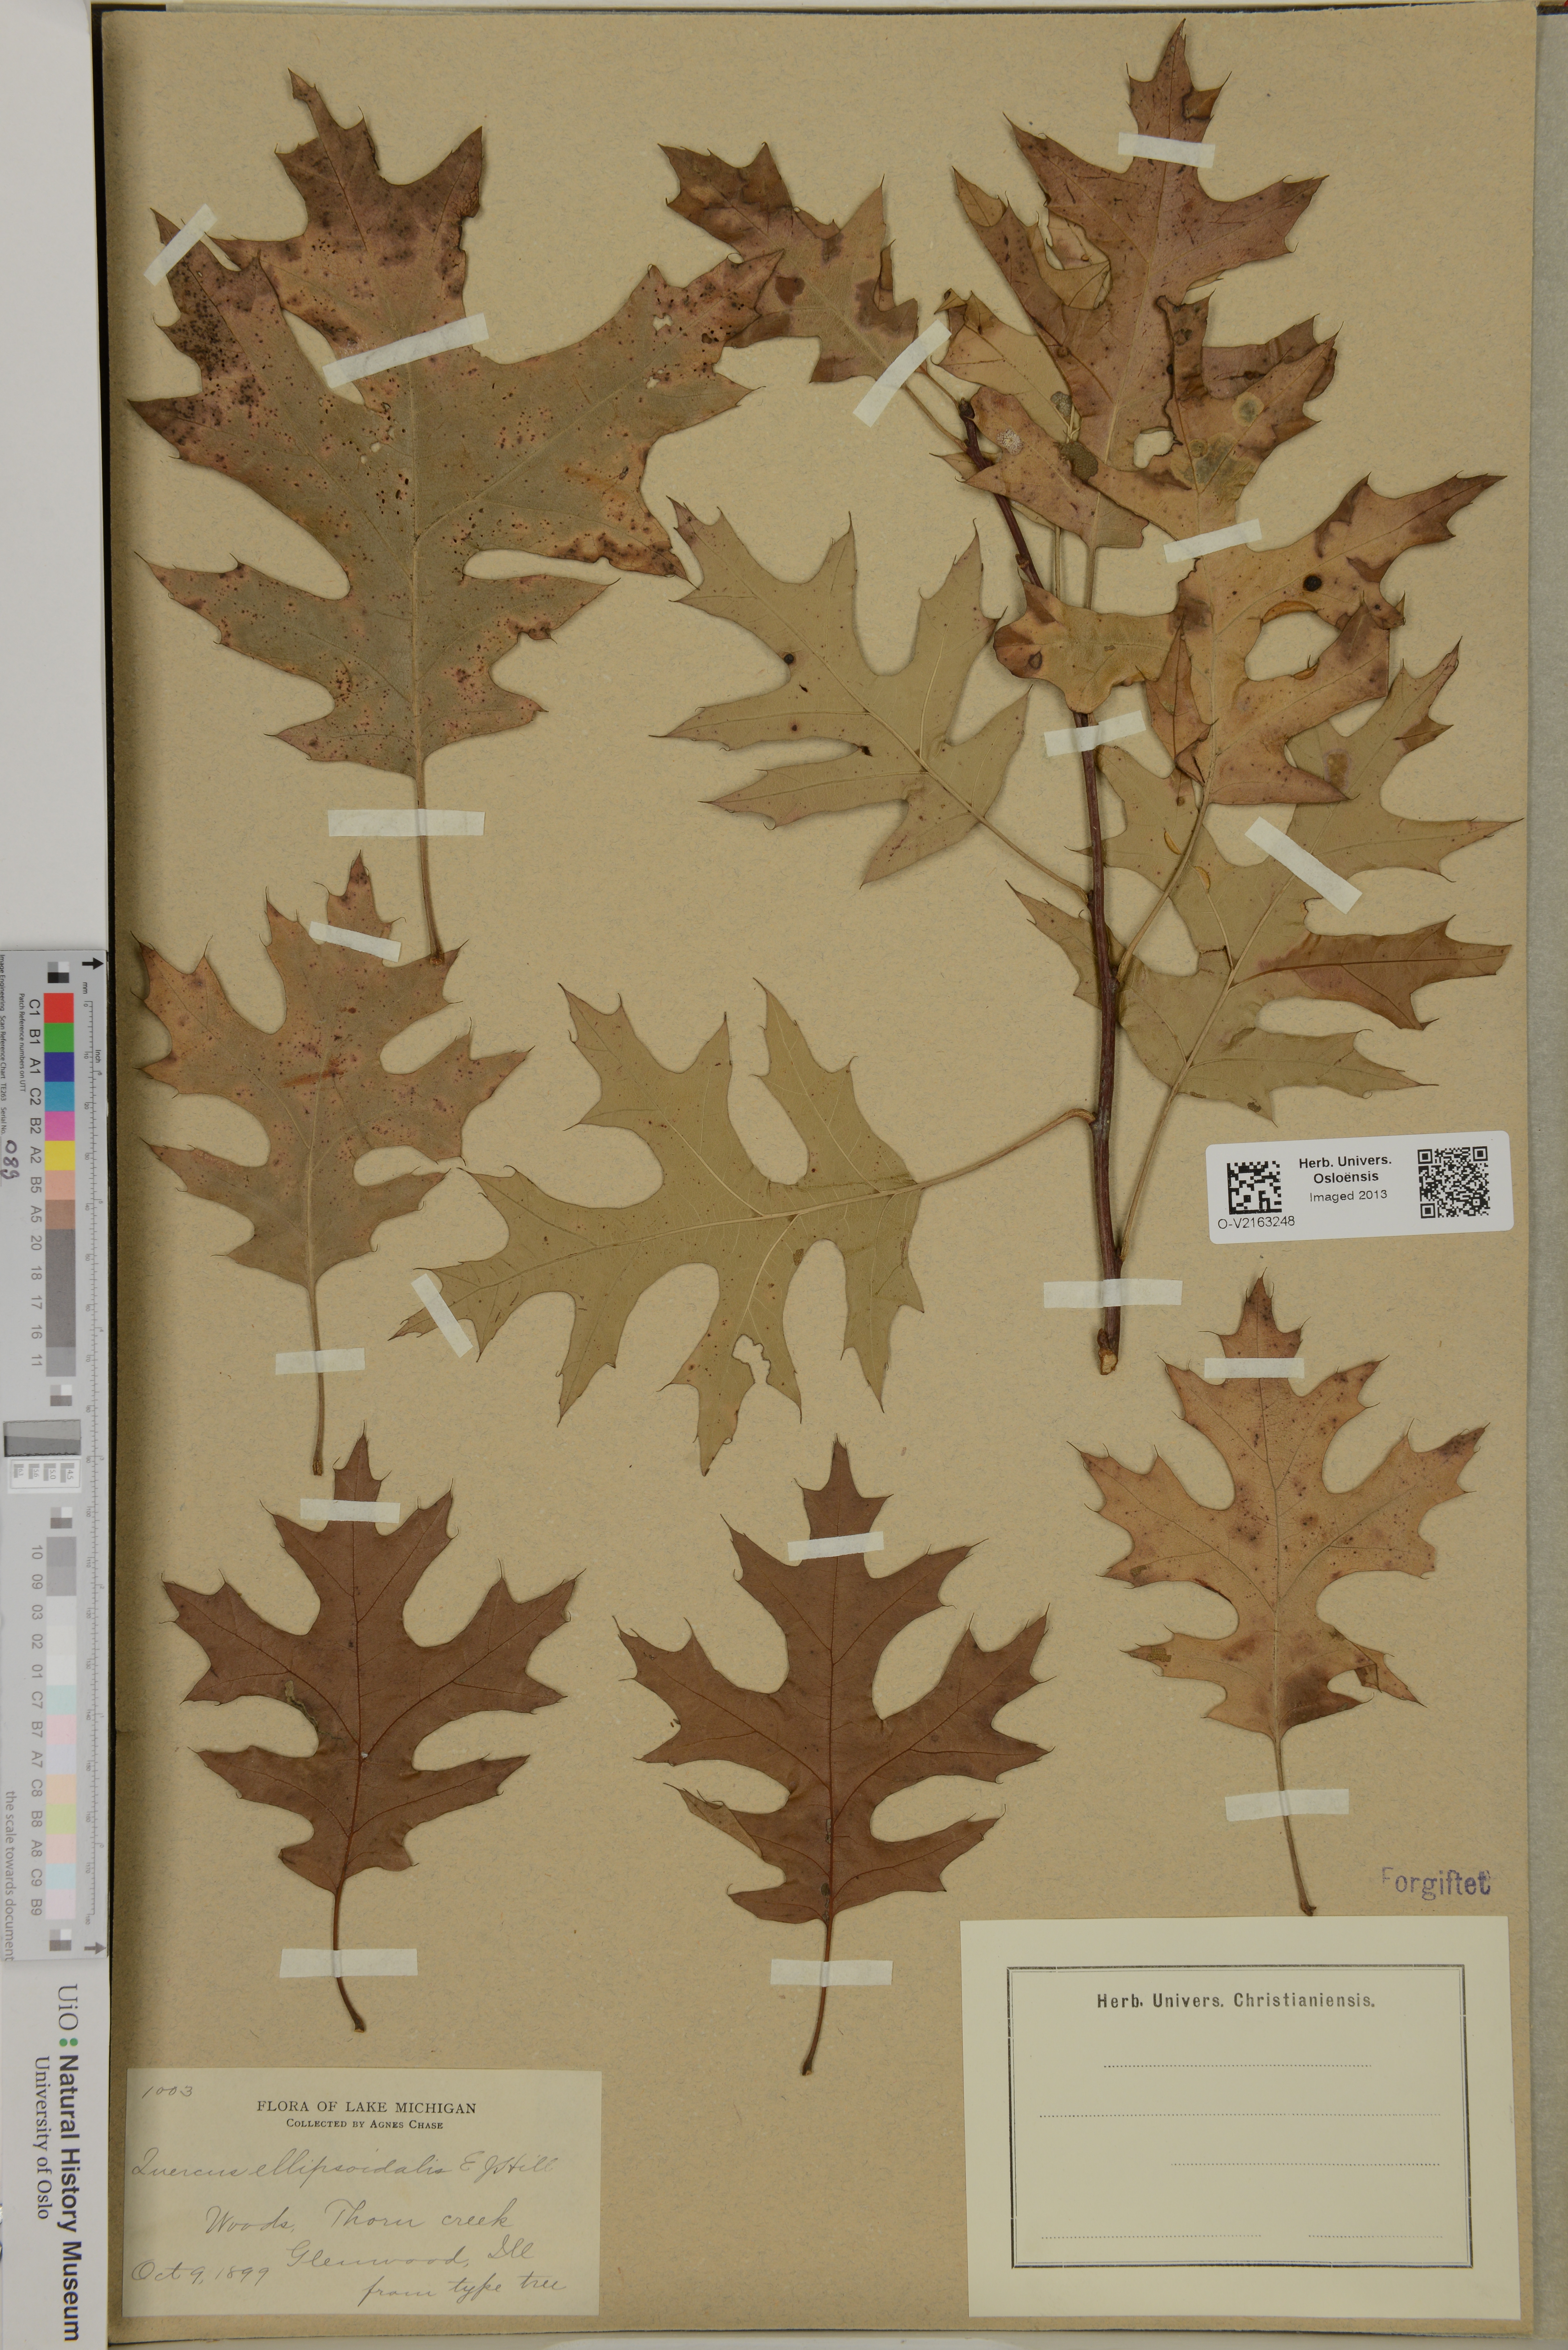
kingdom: Plantae
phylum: Tracheophyta
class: Magnoliopsida
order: Fagales
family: Fagaceae
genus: Quercus
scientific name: Quercus ellipsoidalis
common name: Hill's oak
